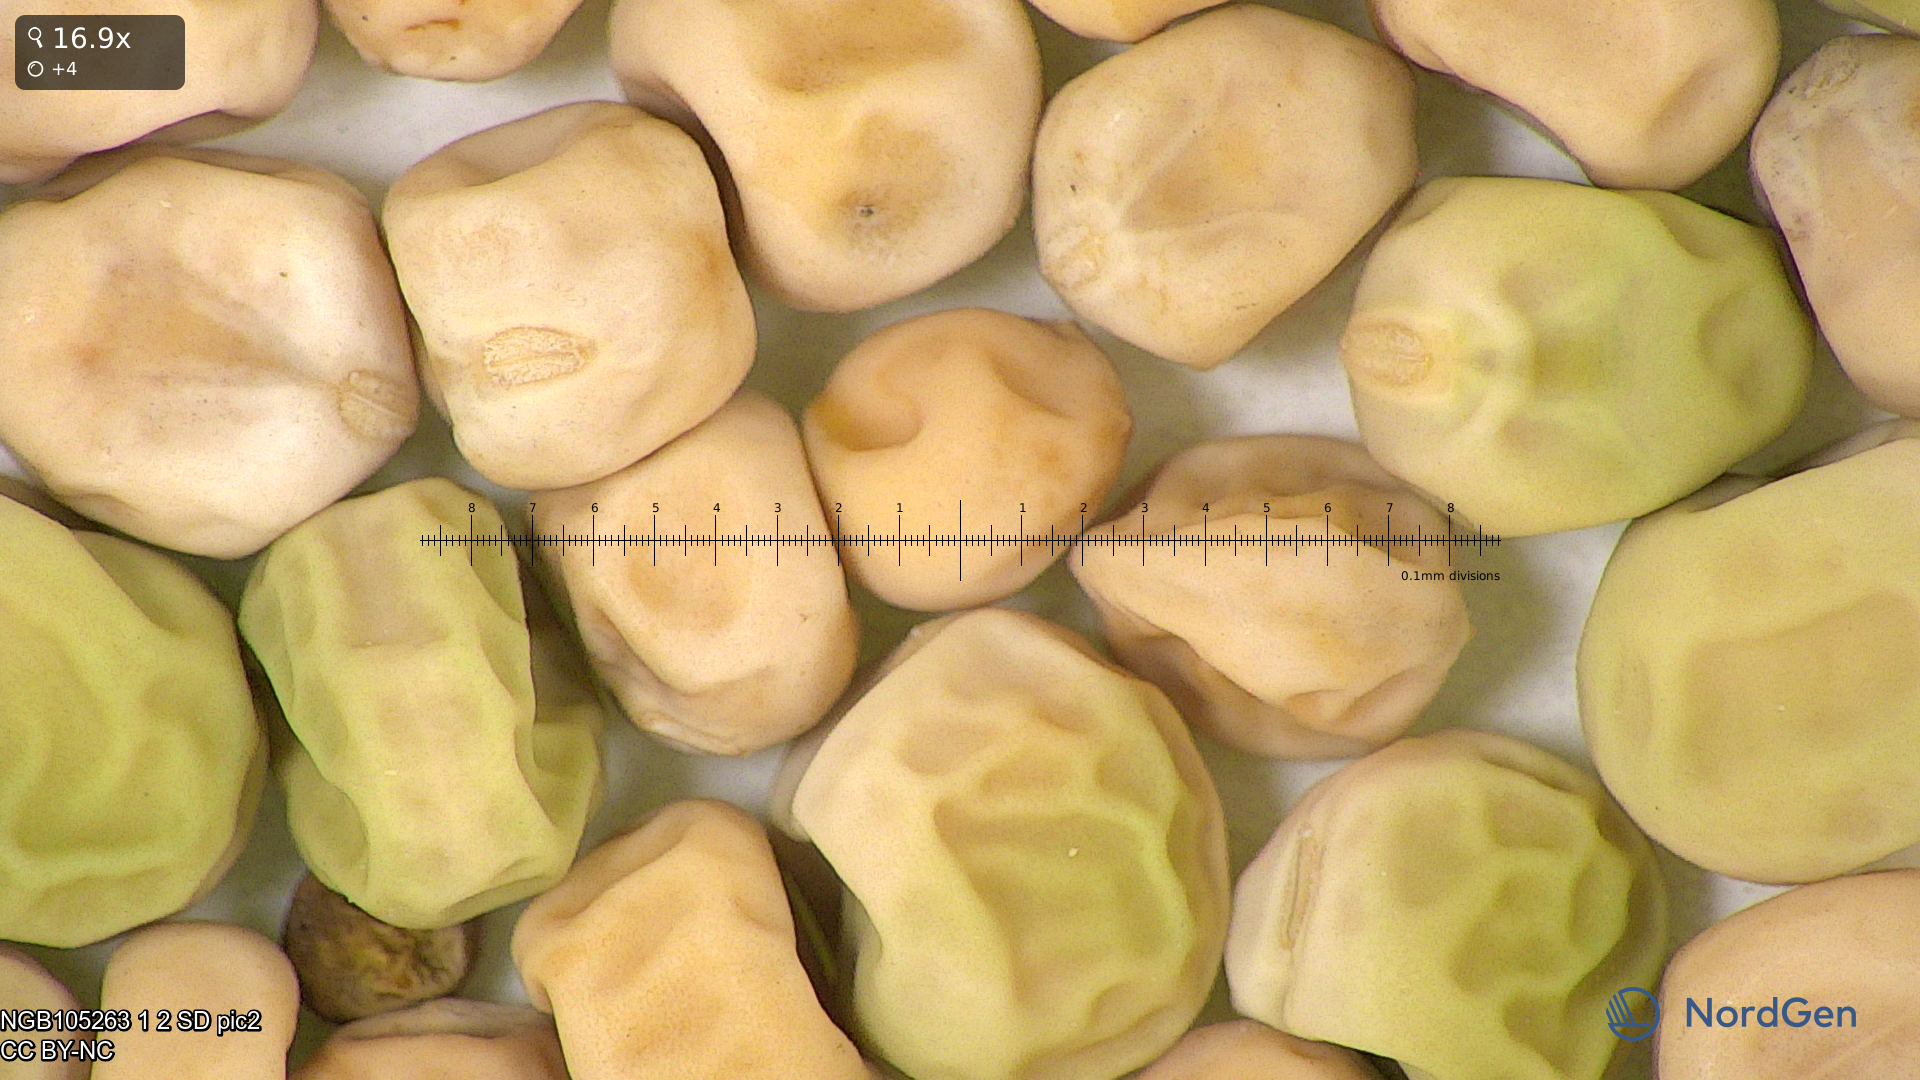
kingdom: Plantae
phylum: Tracheophyta
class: Magnoliopsida
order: Fabales
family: Fabaceae
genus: Lathyrus
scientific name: Lathyrus oleraceus
